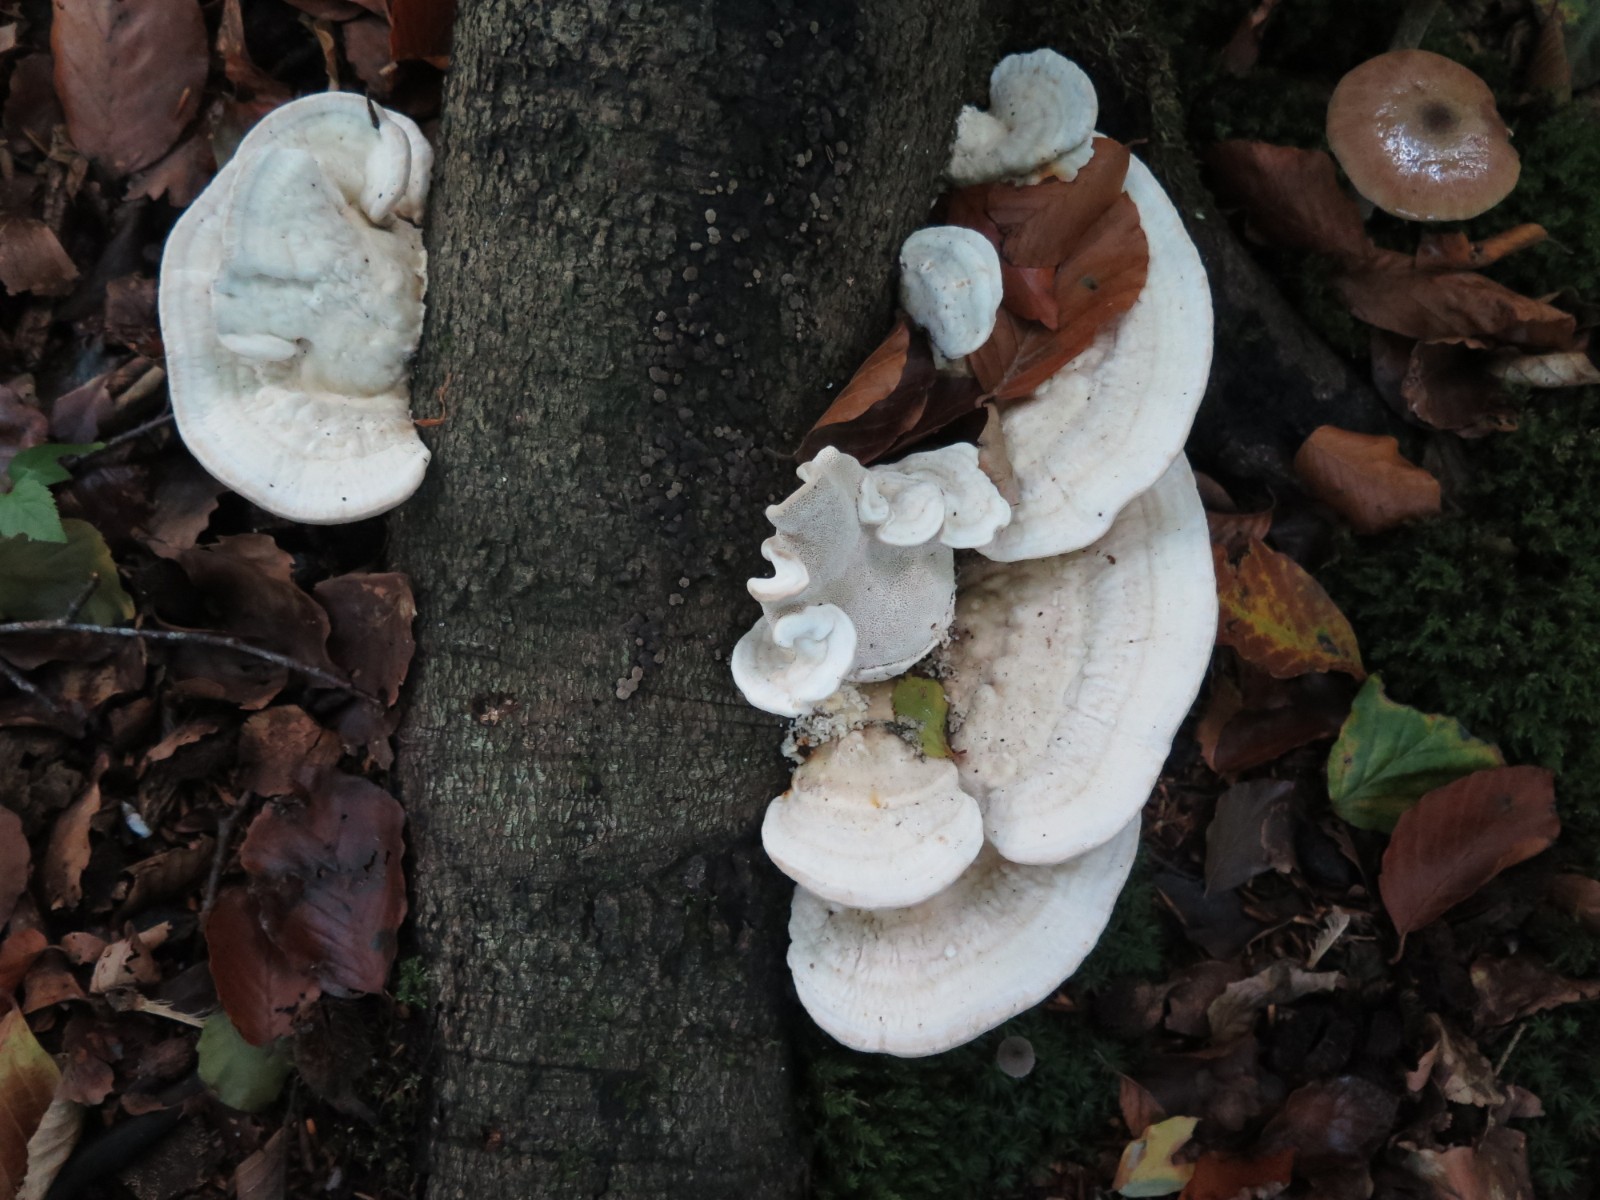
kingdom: Fungi
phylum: Basidiomycota
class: Agaricomycetes
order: Polyporales
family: Polyporaceae
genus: Trametes
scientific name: Trametes hirsuta
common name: håret læderporesvamp
